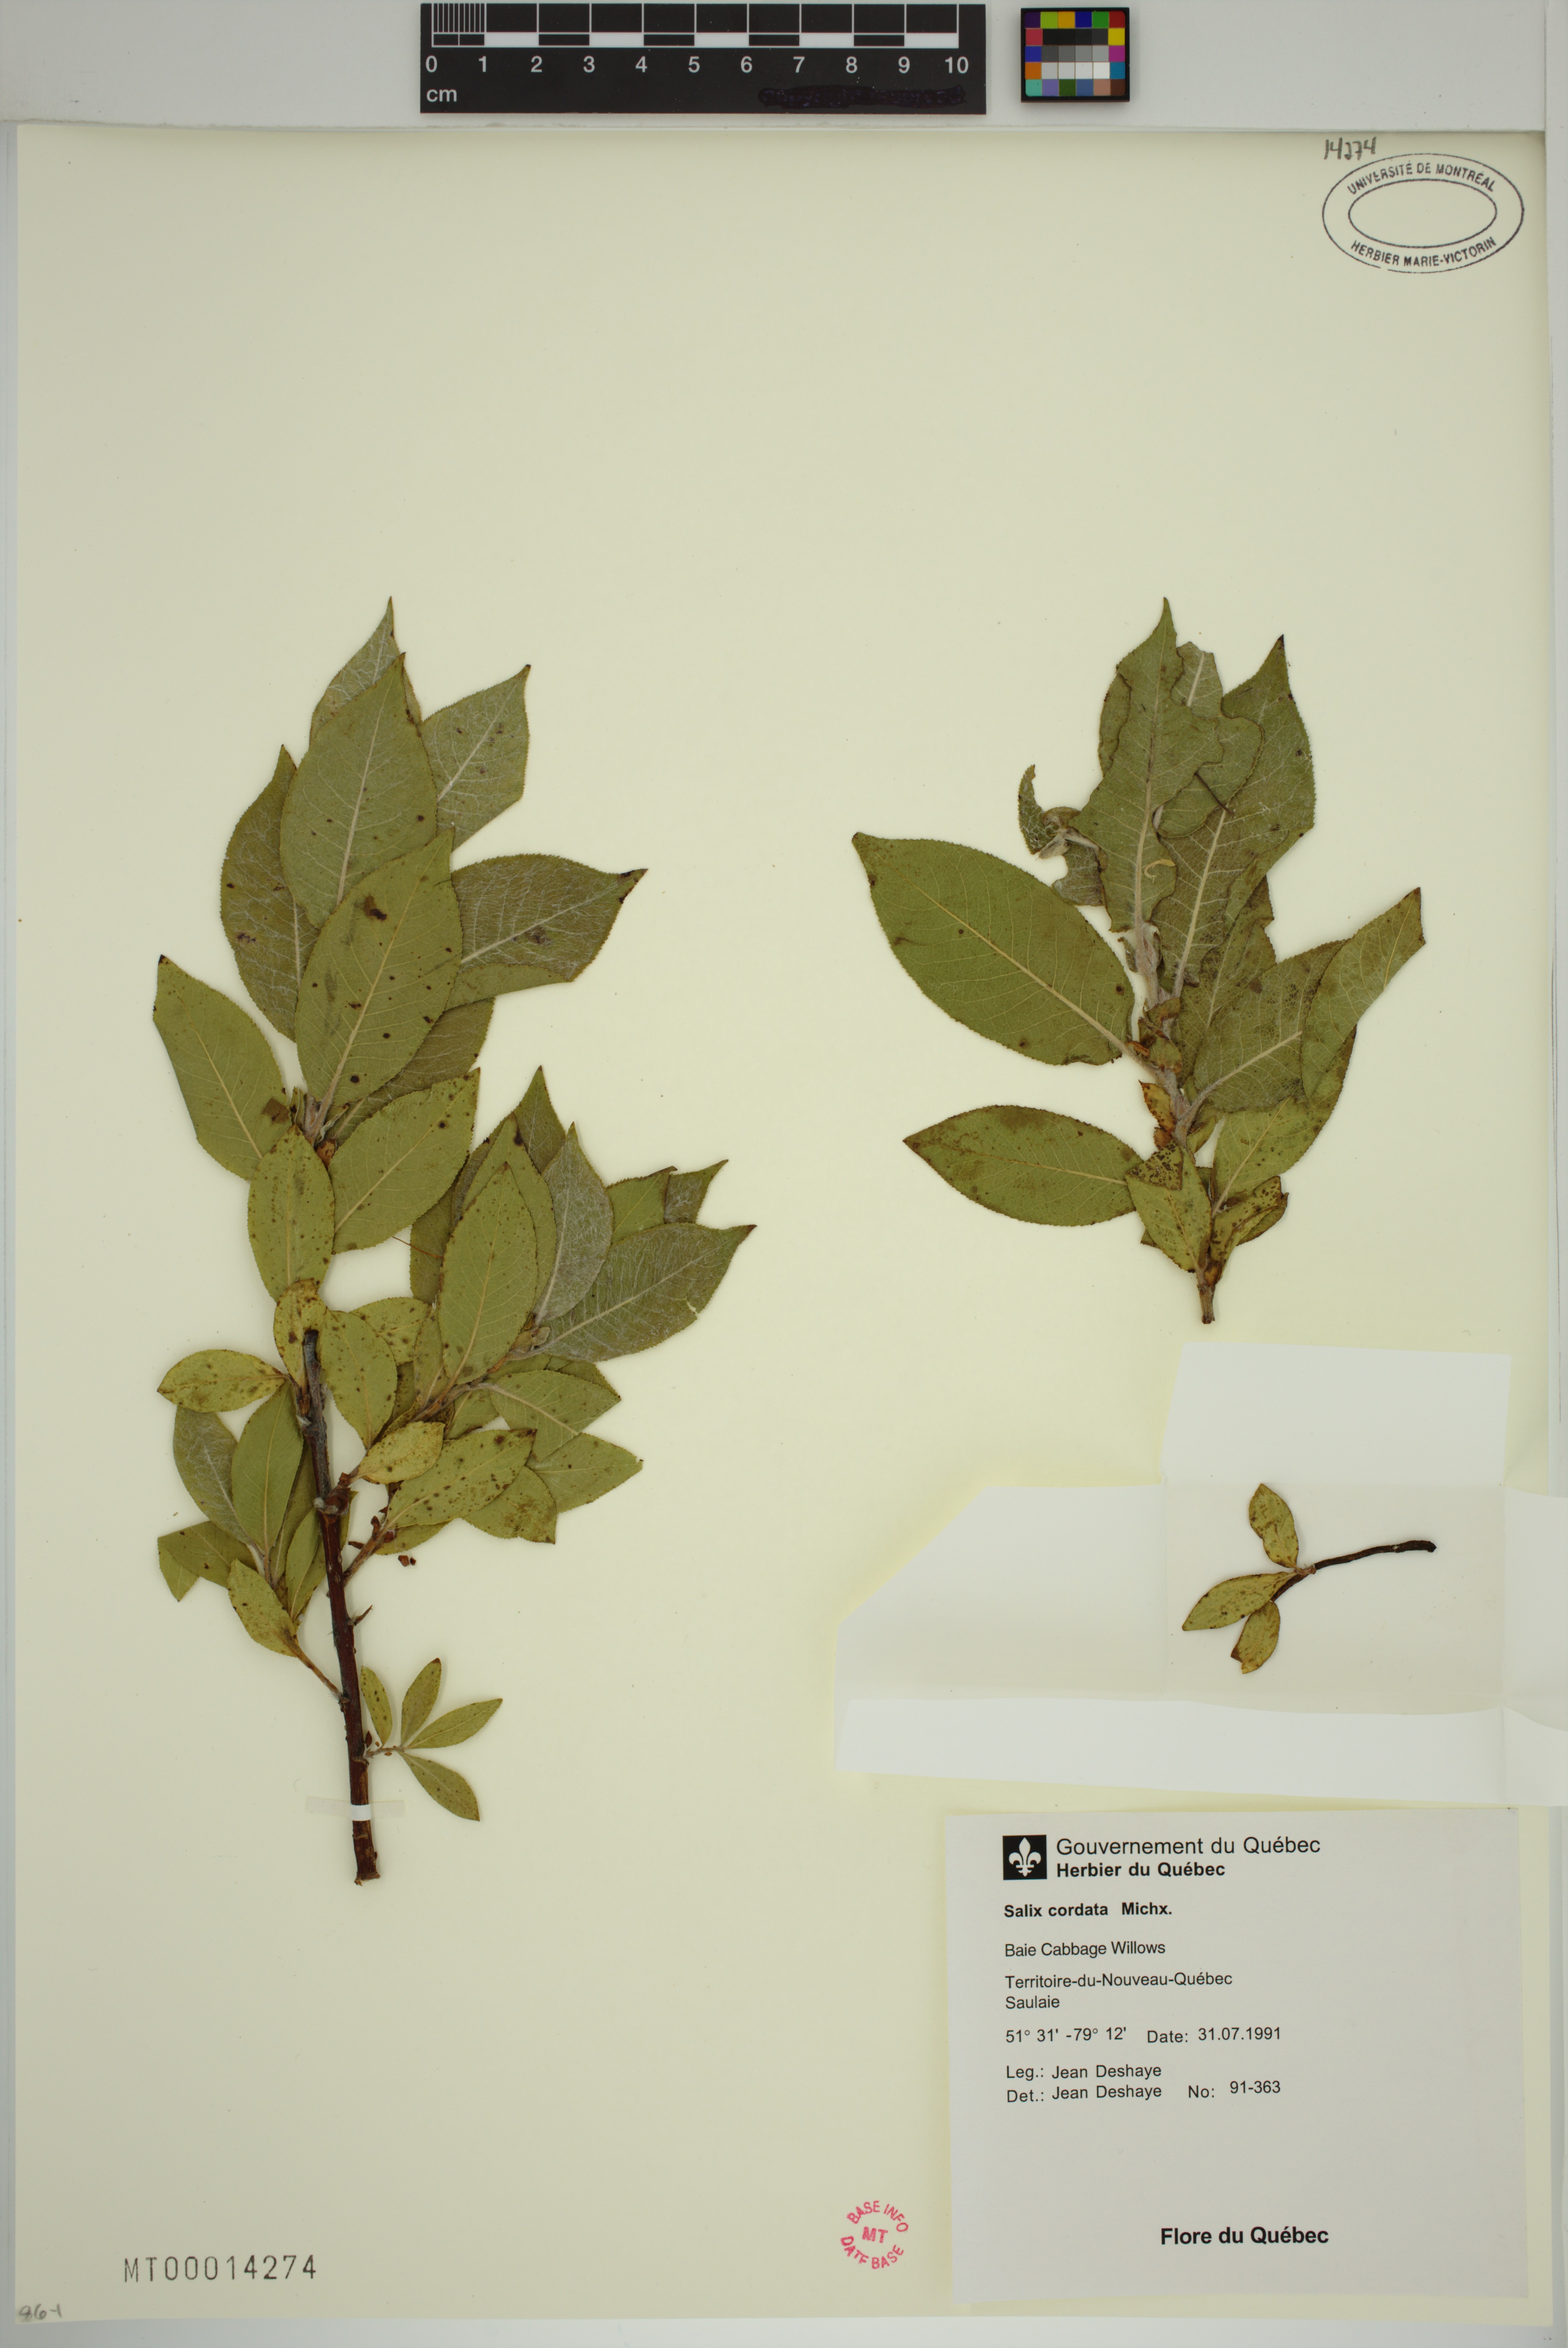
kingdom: Plantae
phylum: Tracheophyta
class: Magnoliopsida
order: Malpighiales
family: Salicaceae
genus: Salix
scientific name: Salix cordata
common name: Heart-leaf willow
